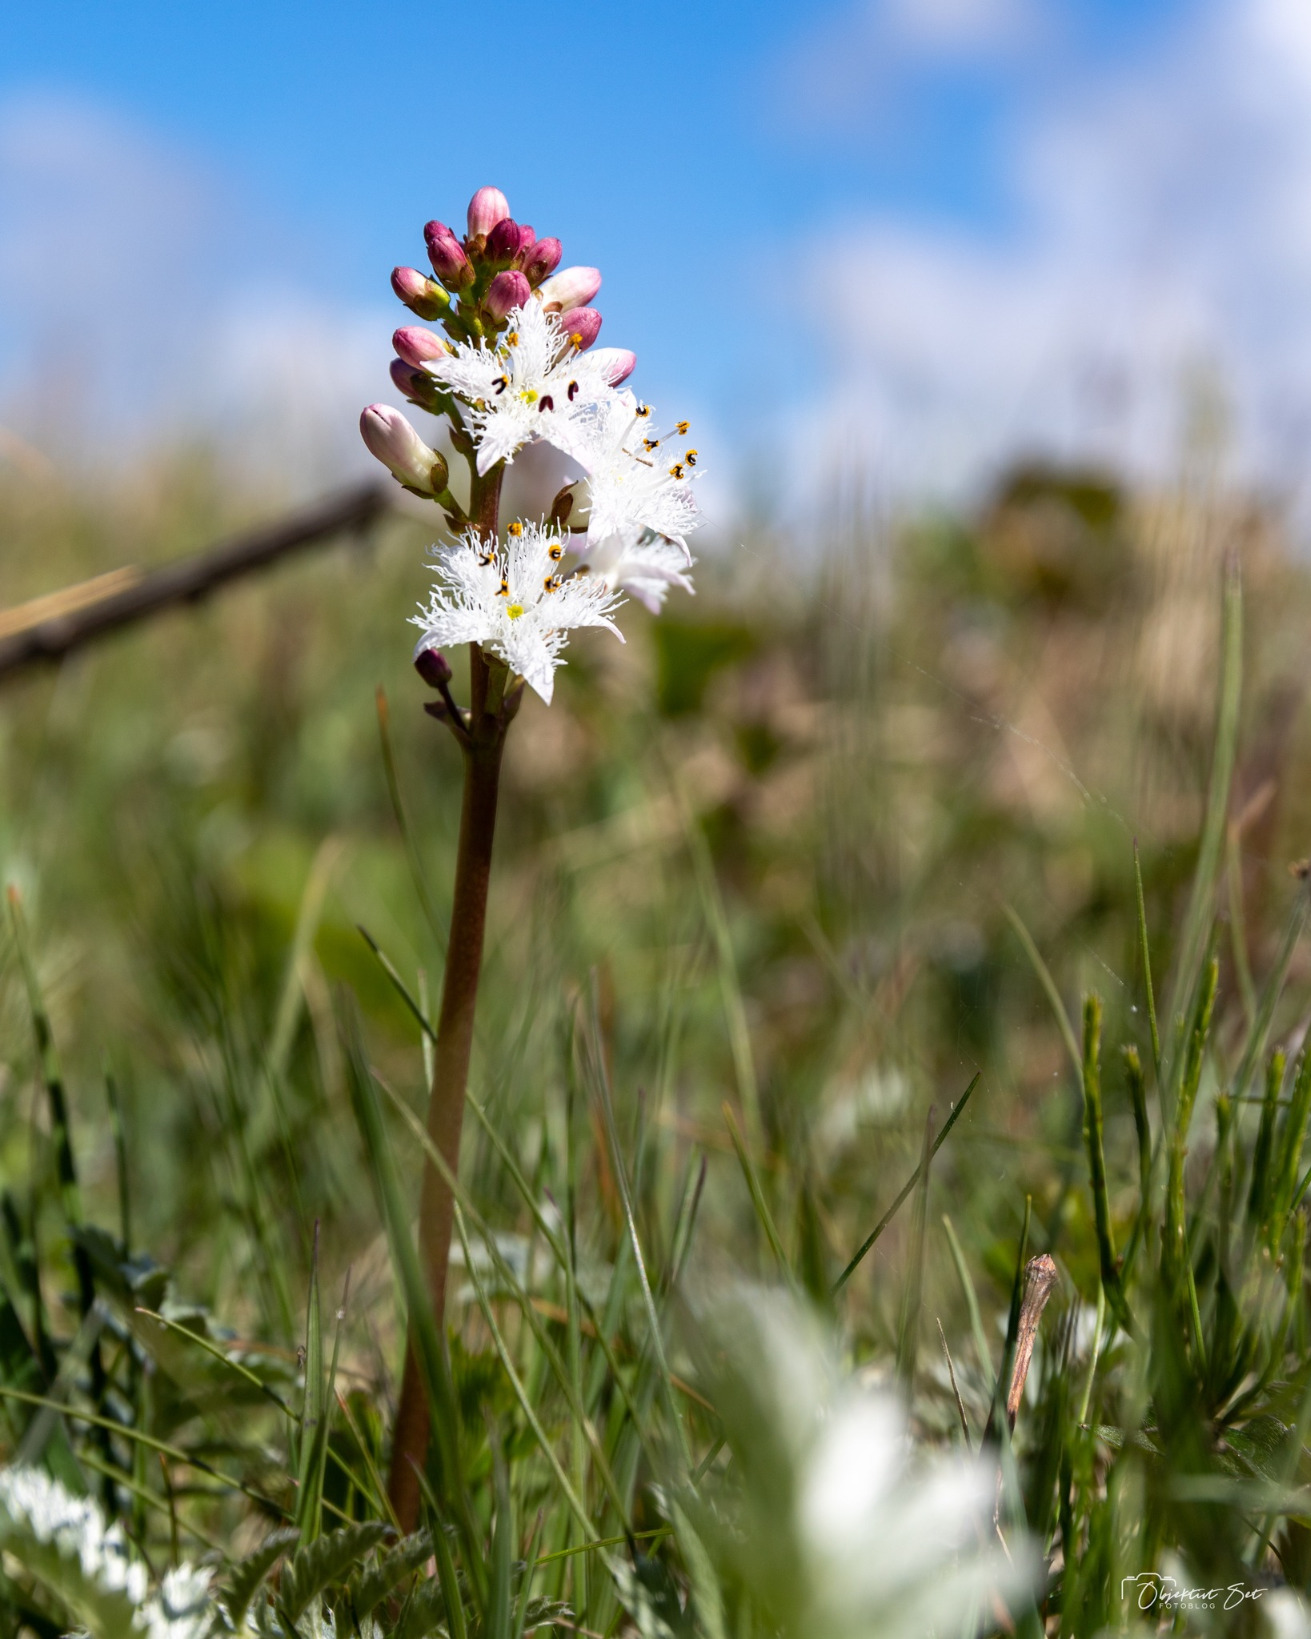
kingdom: Plantae
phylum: Tracheophyta
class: Magnoliopsida
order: Asterales
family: Menyanthaceae
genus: Menyanthes
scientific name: Menyanthes trifoliata
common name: Bukkeblad
